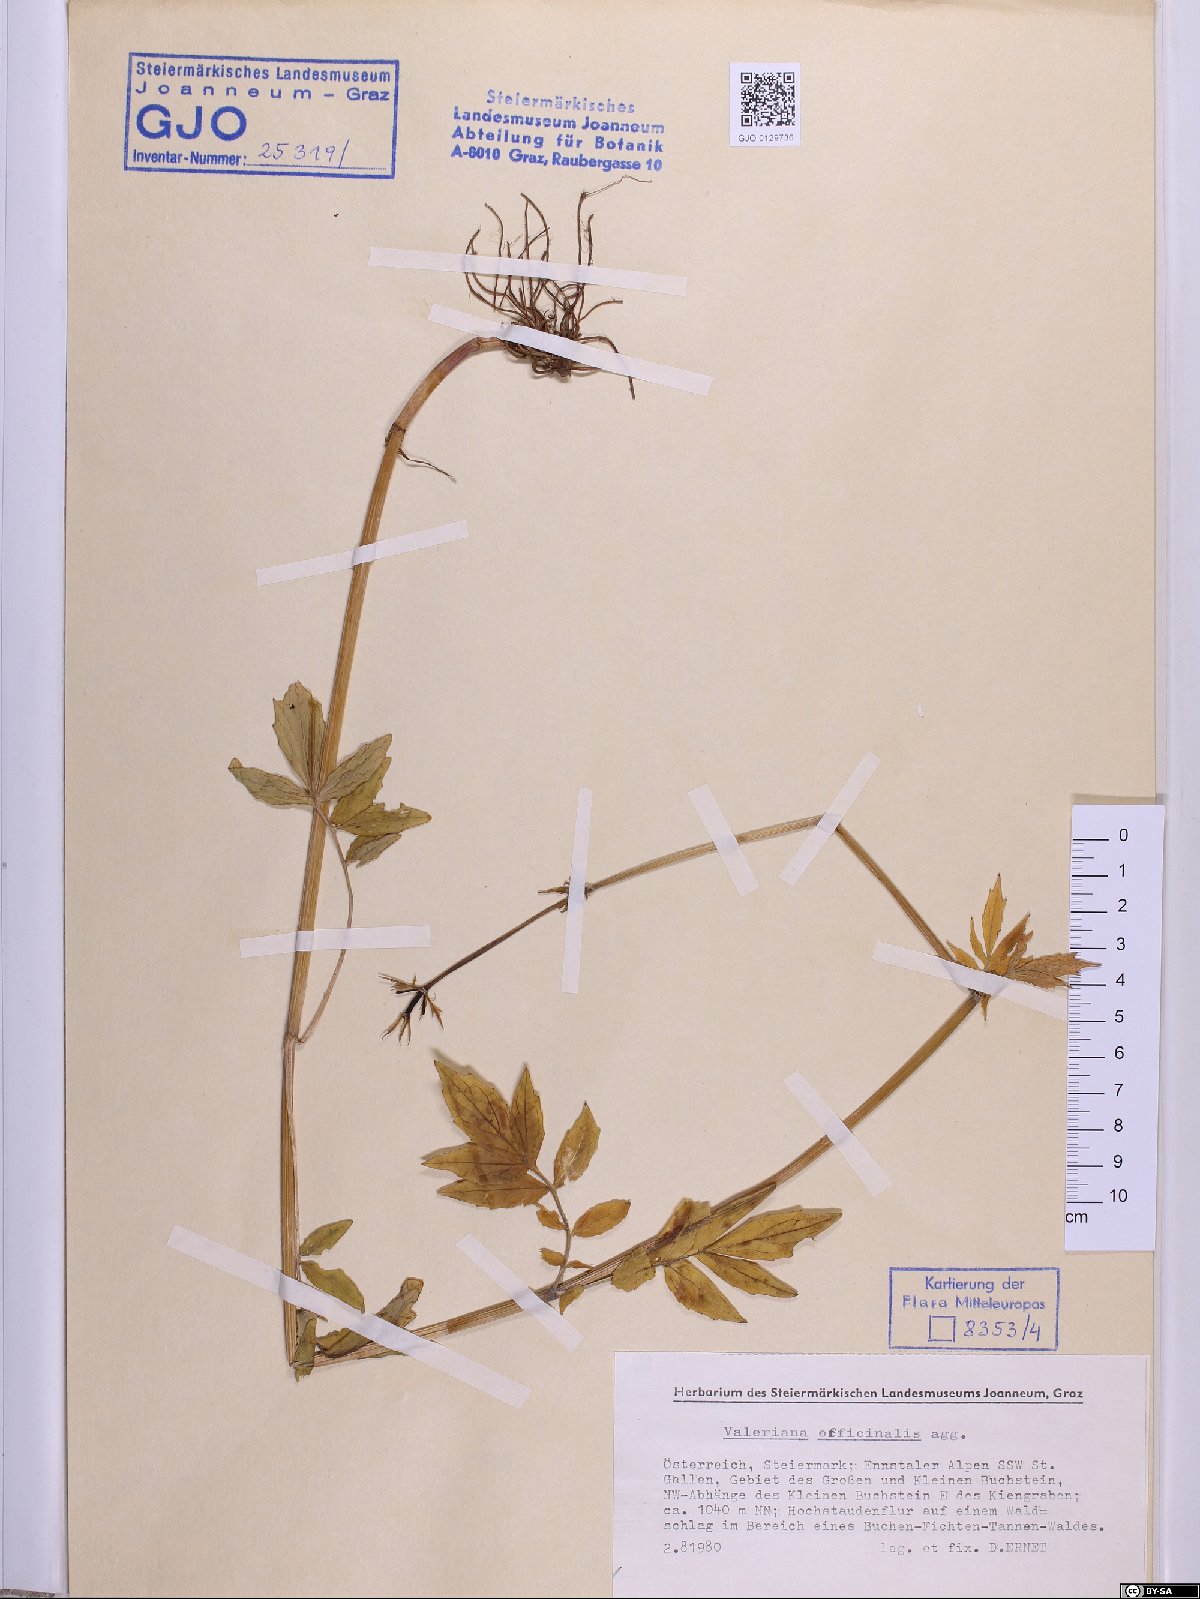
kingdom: Plantae
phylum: Tracheophyta
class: Magnoliopsida
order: Dipsacales
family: Caprifoliaceae
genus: Valeriana
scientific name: Valeriana officinalis
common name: Common valerian
